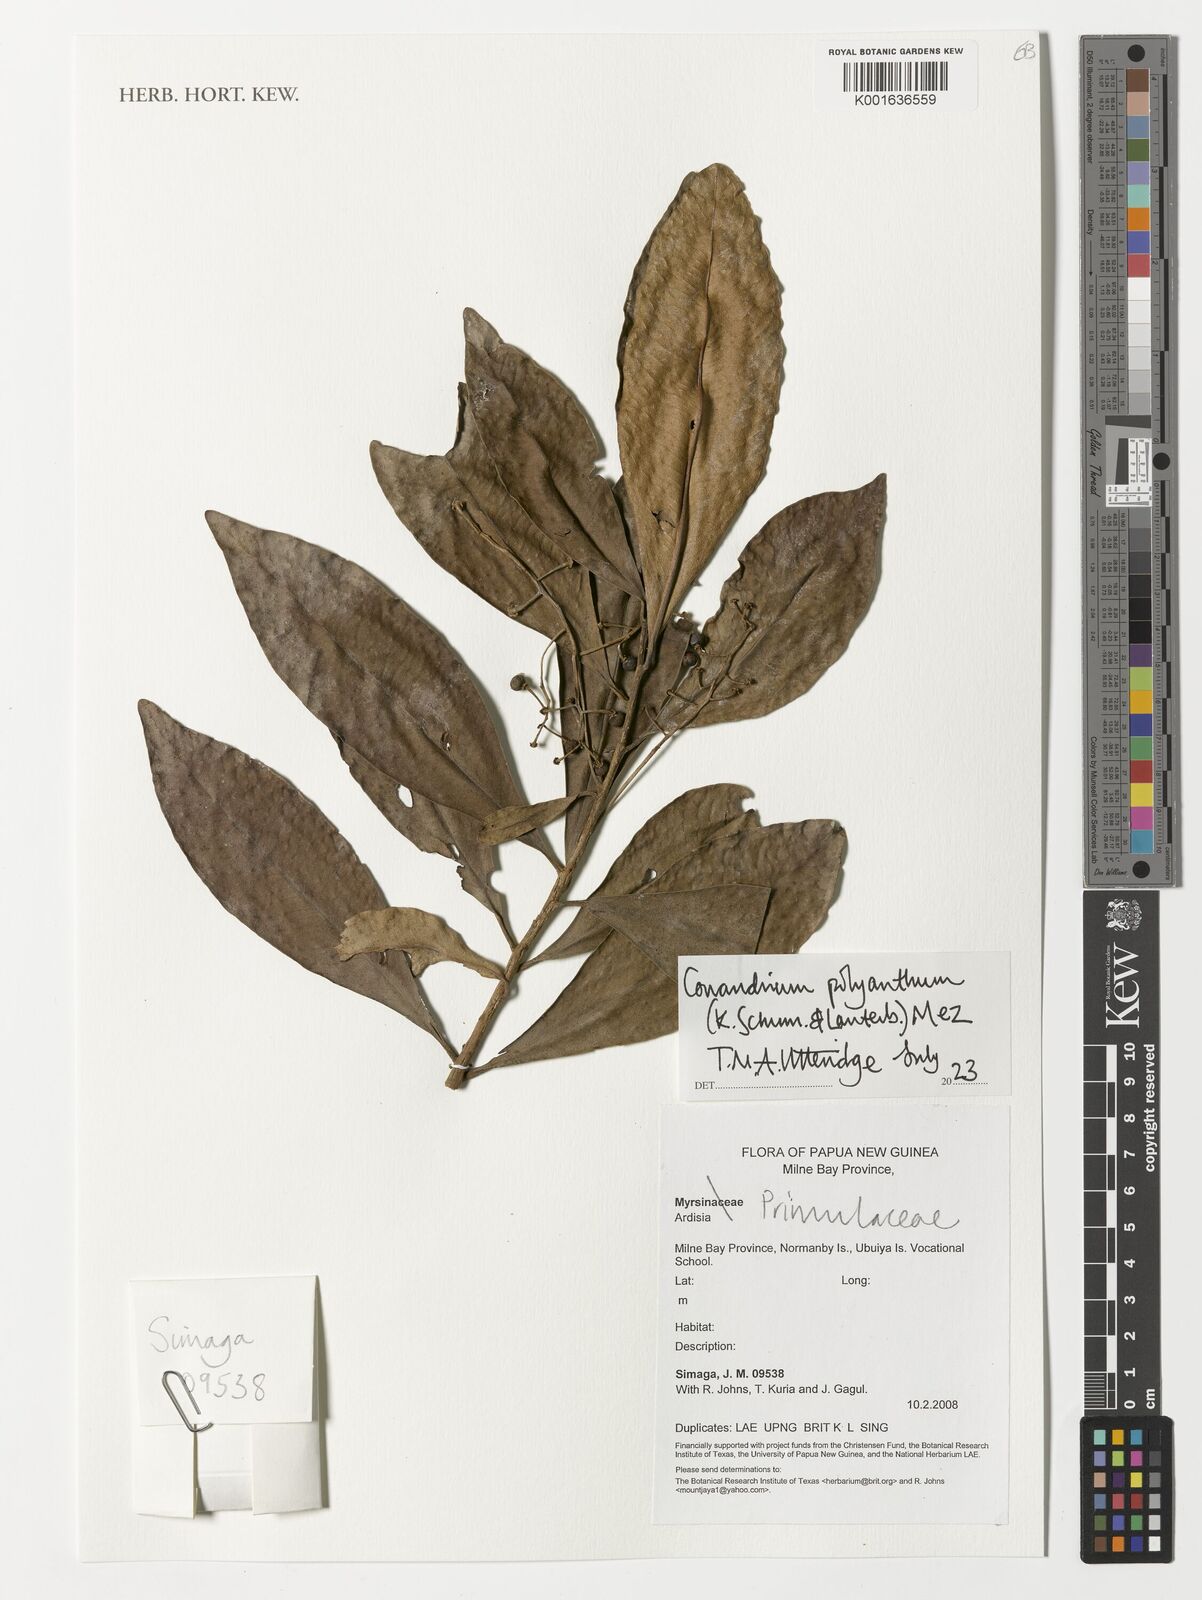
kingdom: Plantae
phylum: Tracheophyta
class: Magnoliopsida
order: Ericales
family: Primulaceae
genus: Conandrium
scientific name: Conandrium polyanthum
